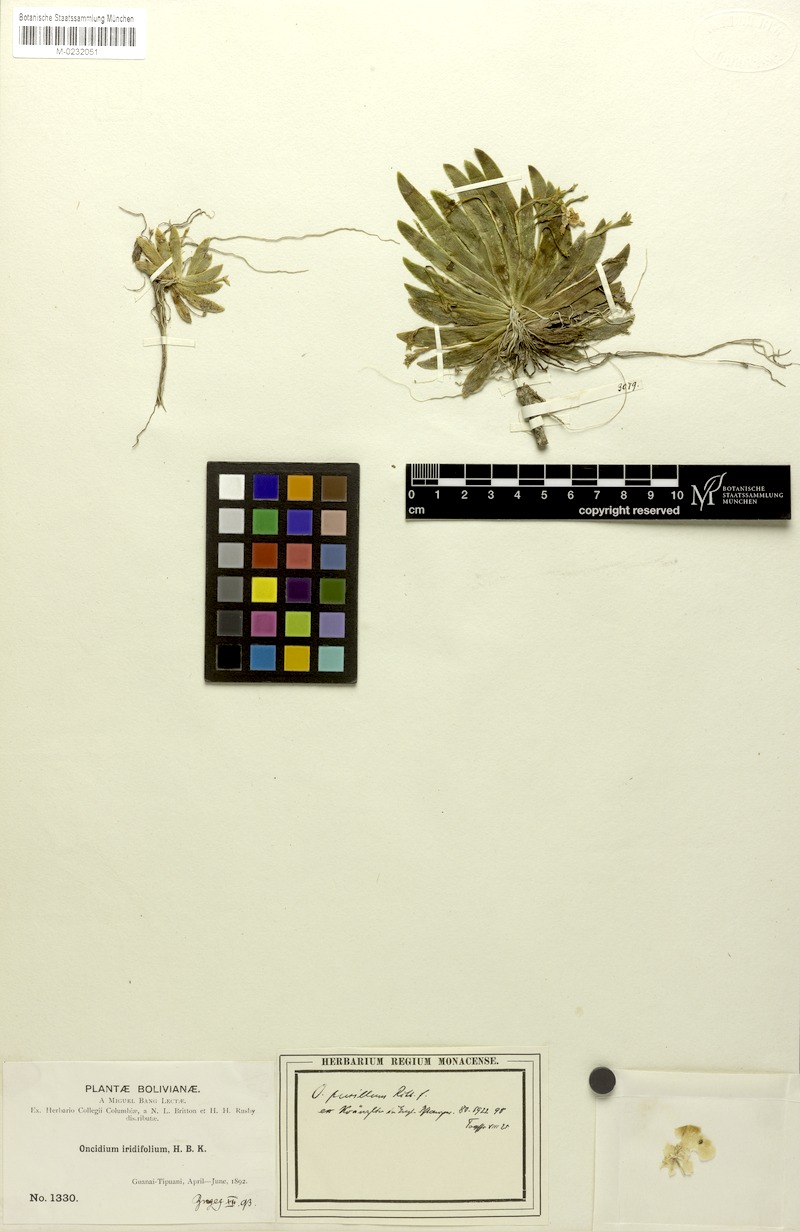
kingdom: Plantae
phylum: Tracheophyta
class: Liliopsida
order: Asparagales
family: Orchidaceae
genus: Erycina
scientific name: Erycina pusilla
